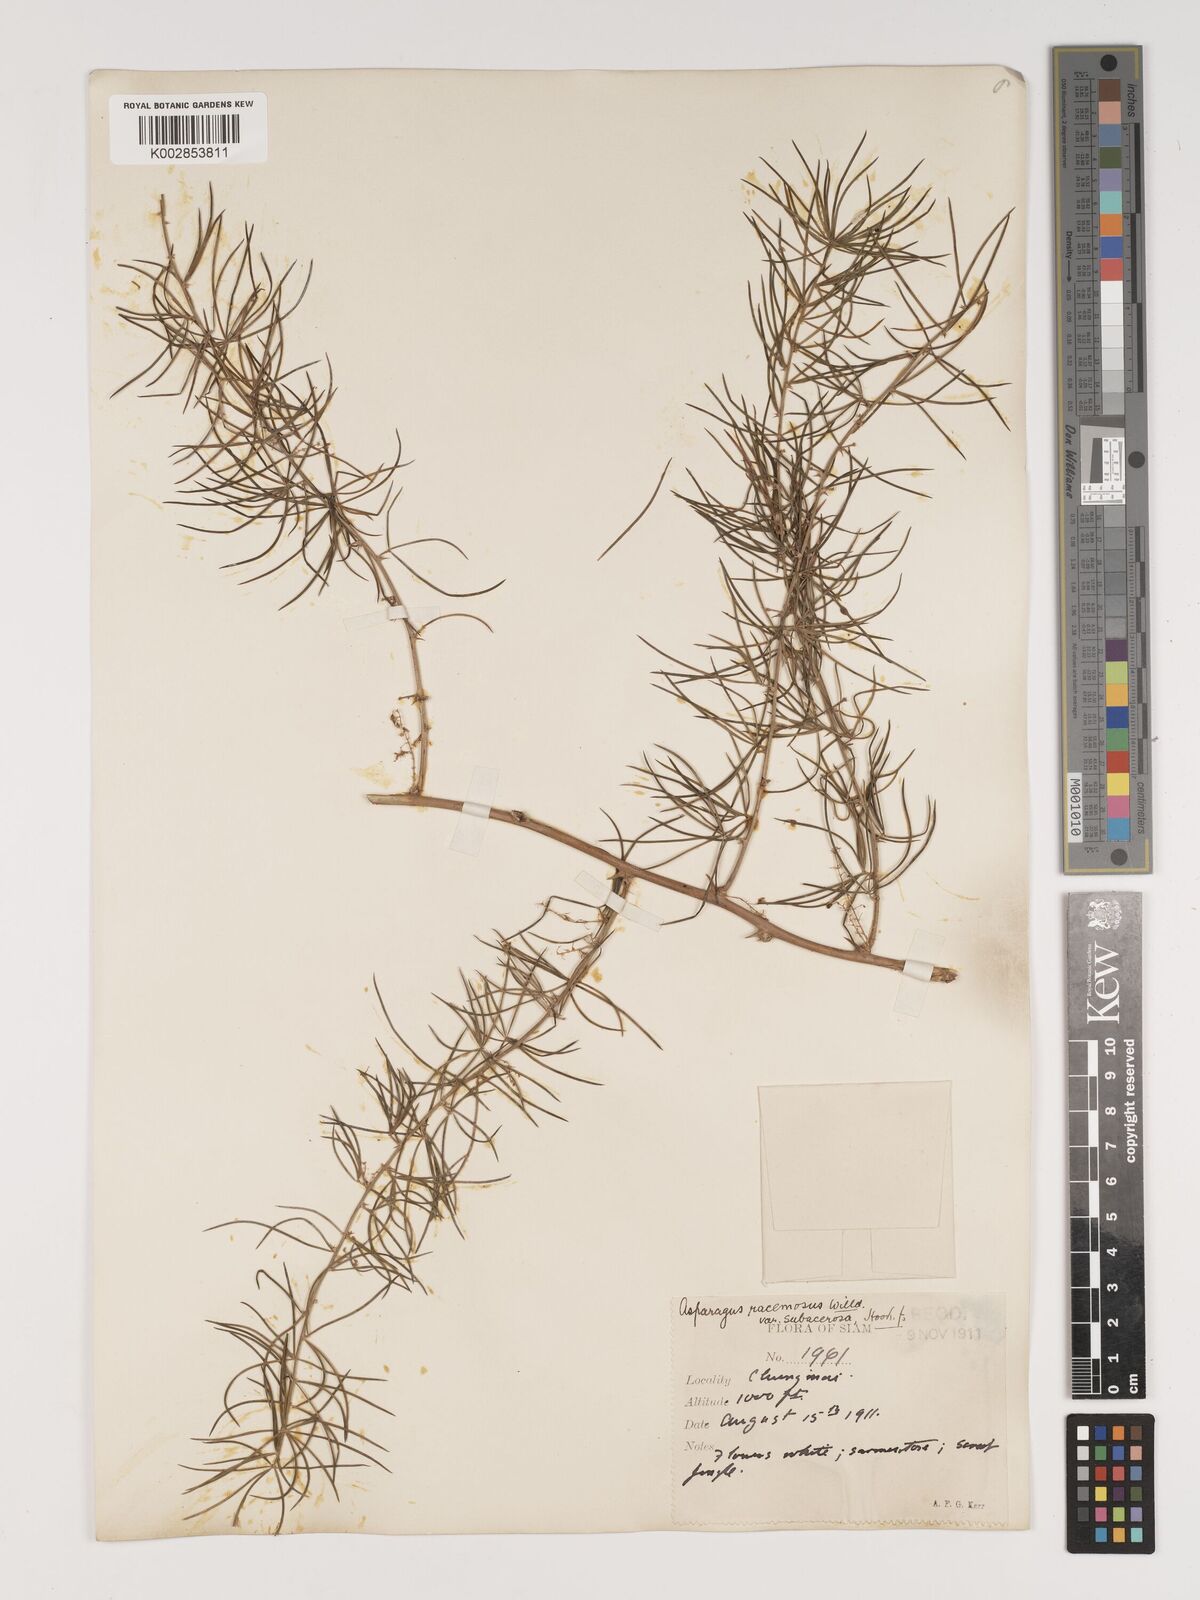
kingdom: Plantae
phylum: Tracheophyta
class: Liliopsida
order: Asparagales
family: Asparagaceae
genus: Asparagus
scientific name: Asparagus racemosus
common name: Asparagus-fern
